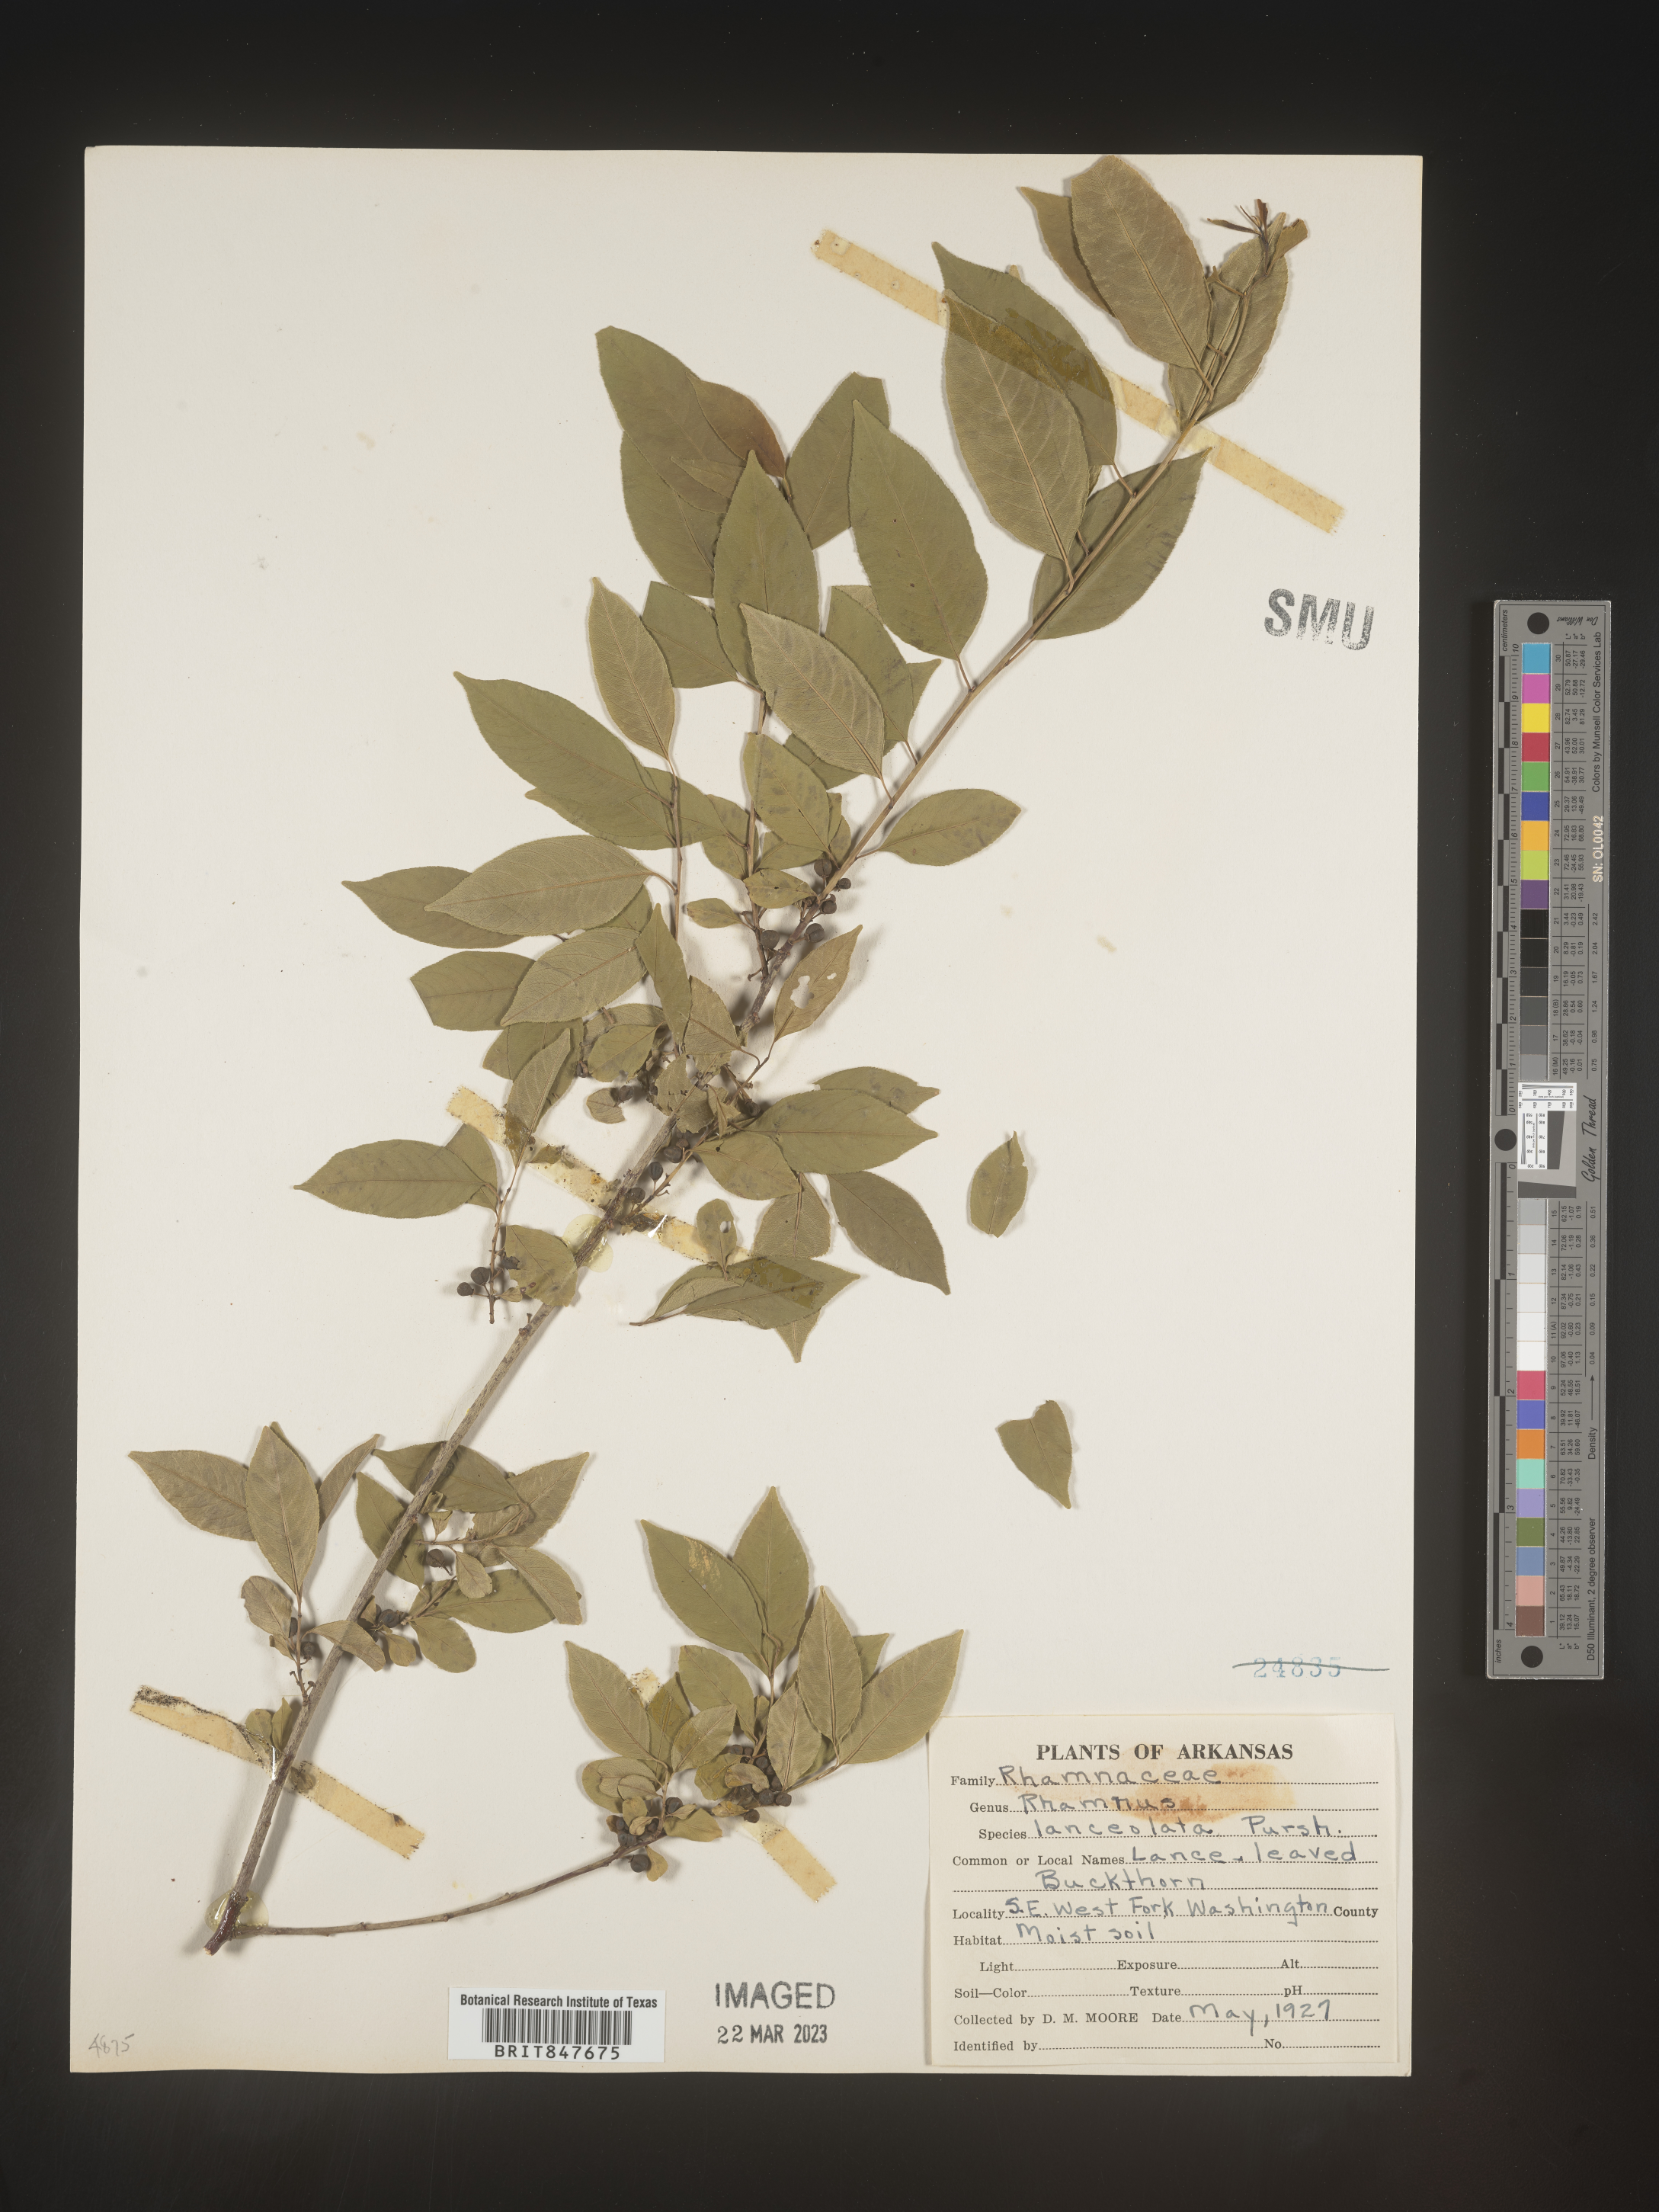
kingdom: Plantae
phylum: Tracheophyta
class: Magnoliopsida
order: Rosales
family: Rhamnaceae
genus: Endotropis
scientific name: Endotropis lanceolata
